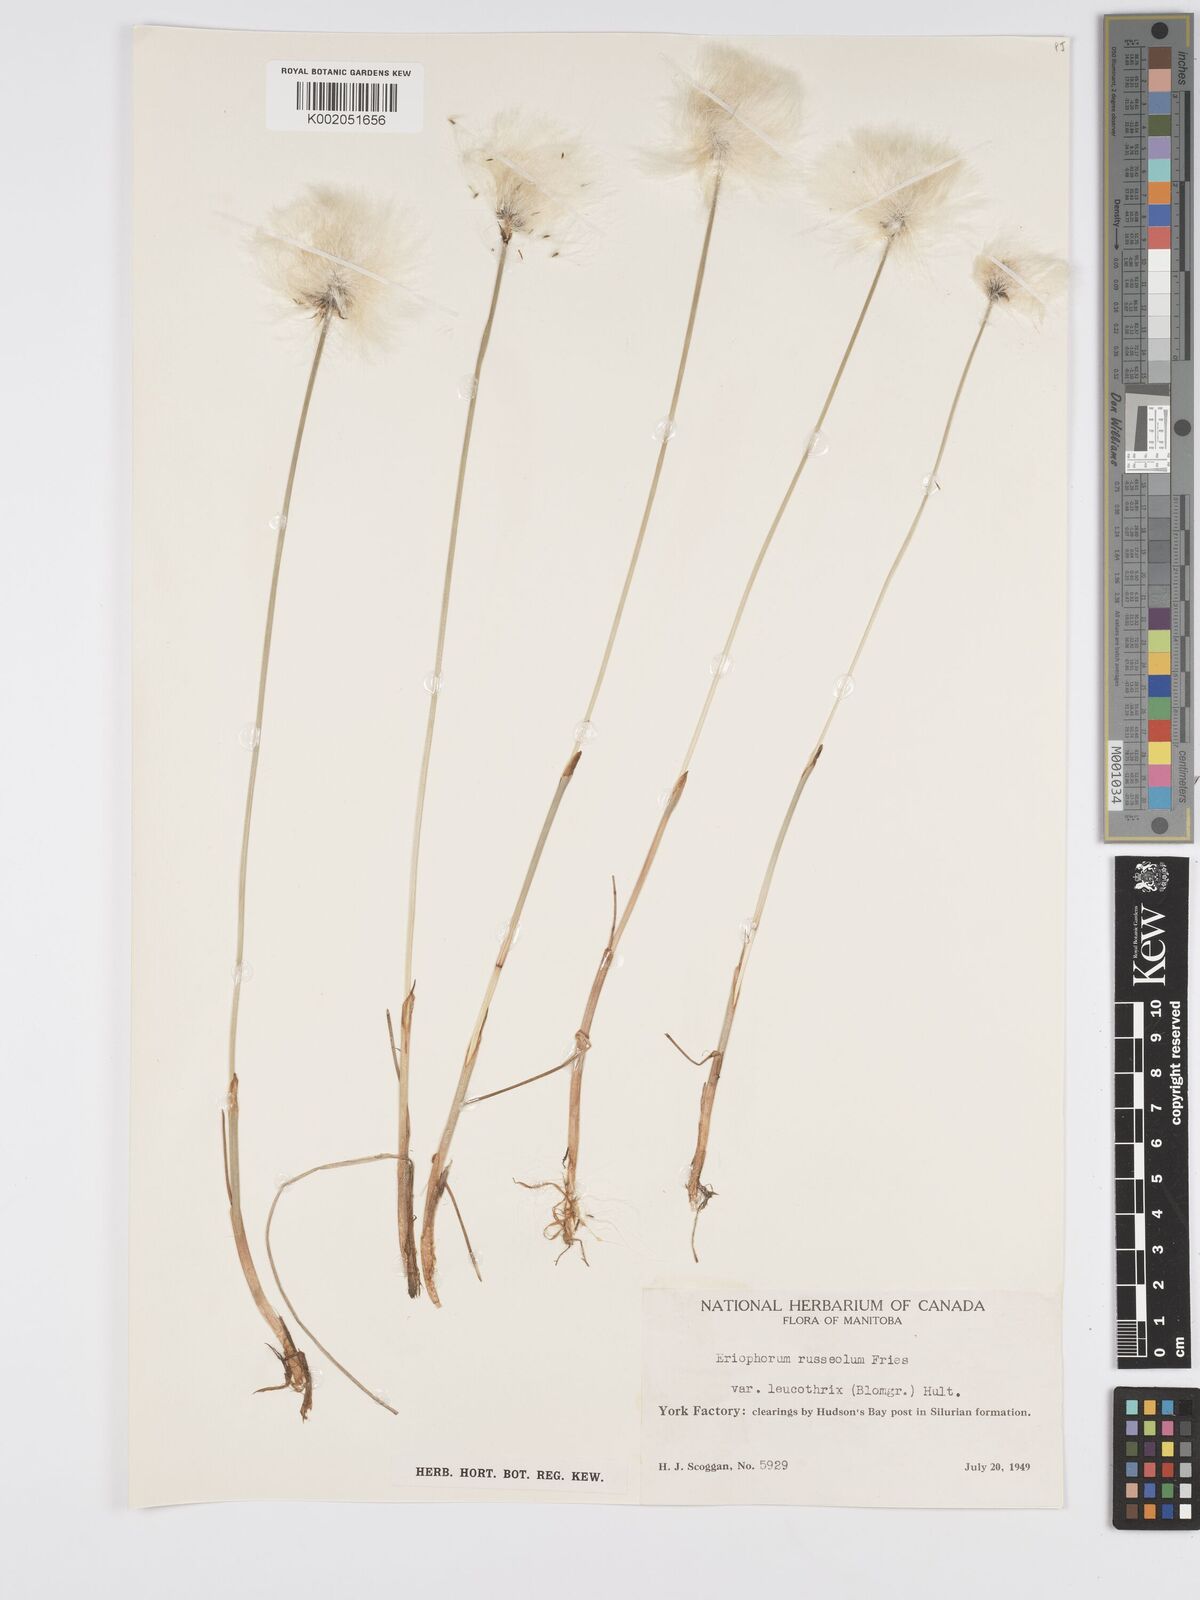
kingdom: Plantae
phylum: Tracheophyta
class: Liliopsida
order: Poales
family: Cyperaceae
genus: Eriophorum
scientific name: Eriophorum chamissonis
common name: Chamisso's cottongrass
